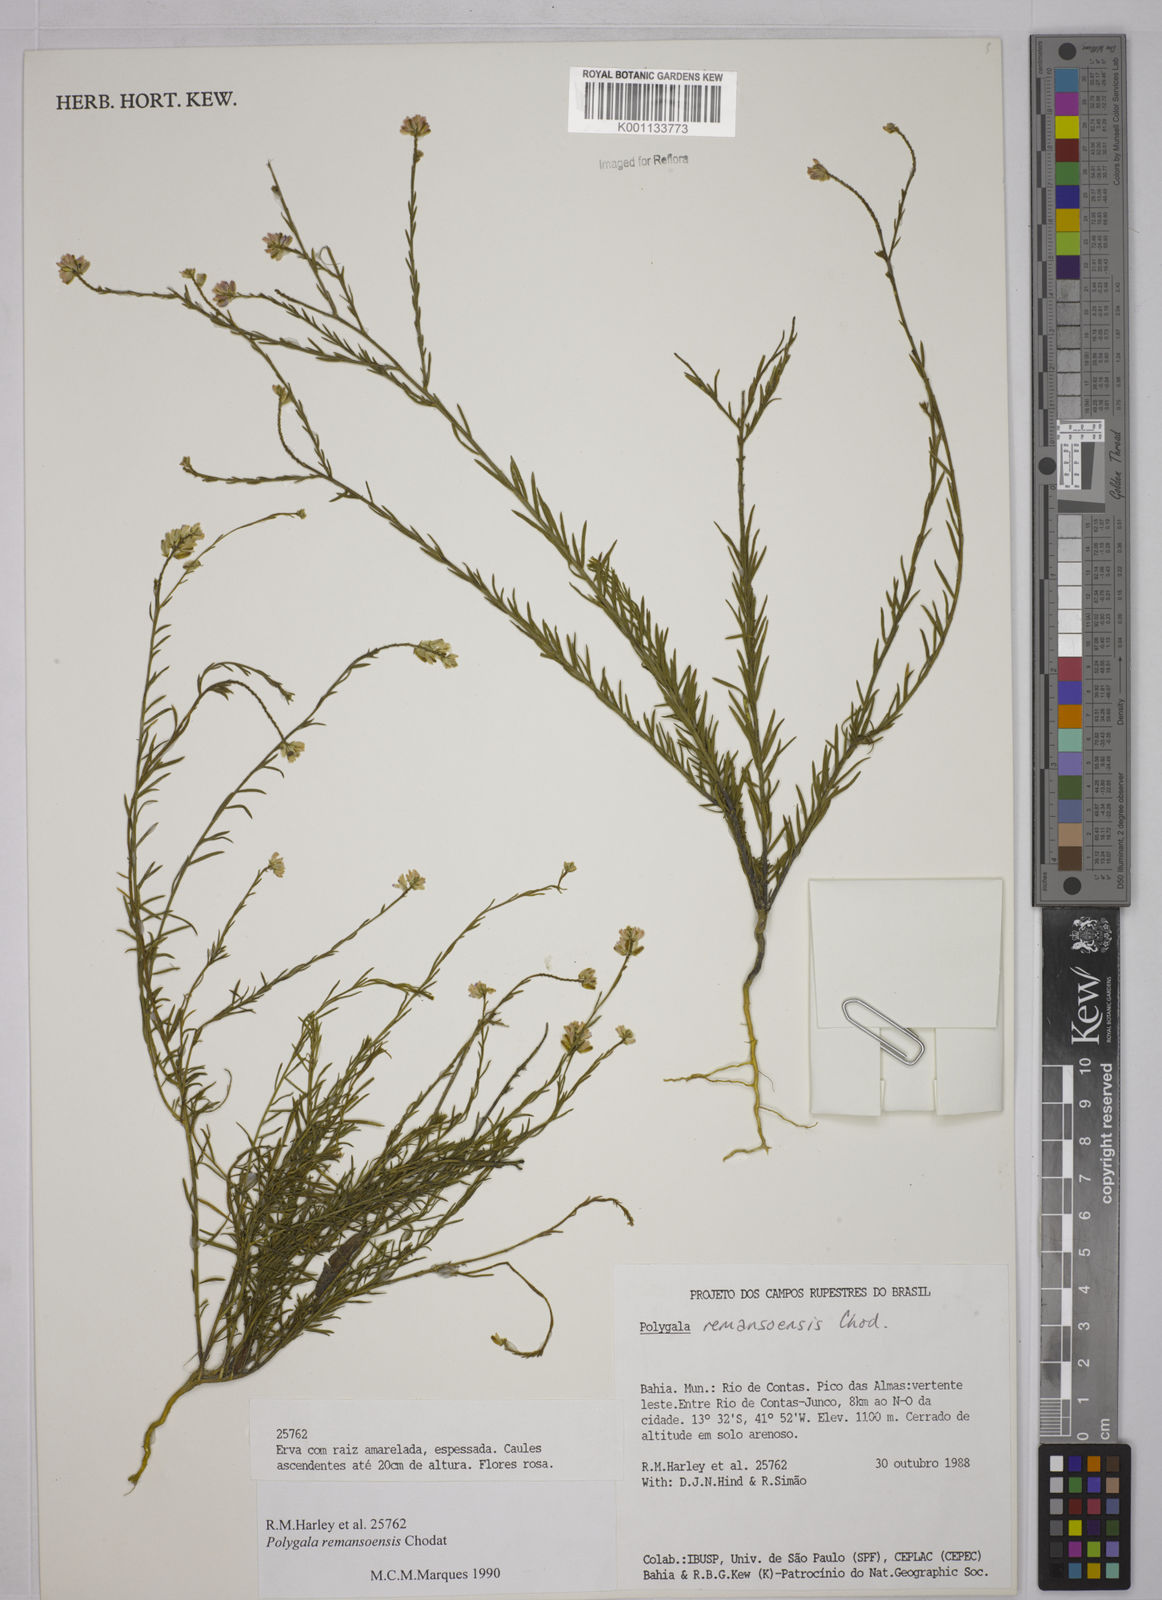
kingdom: Plantae
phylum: Tracheophyta
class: Magnoliopsida
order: Fabales
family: Polygalaceae
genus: Polygala
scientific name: Polygala trichosperma
